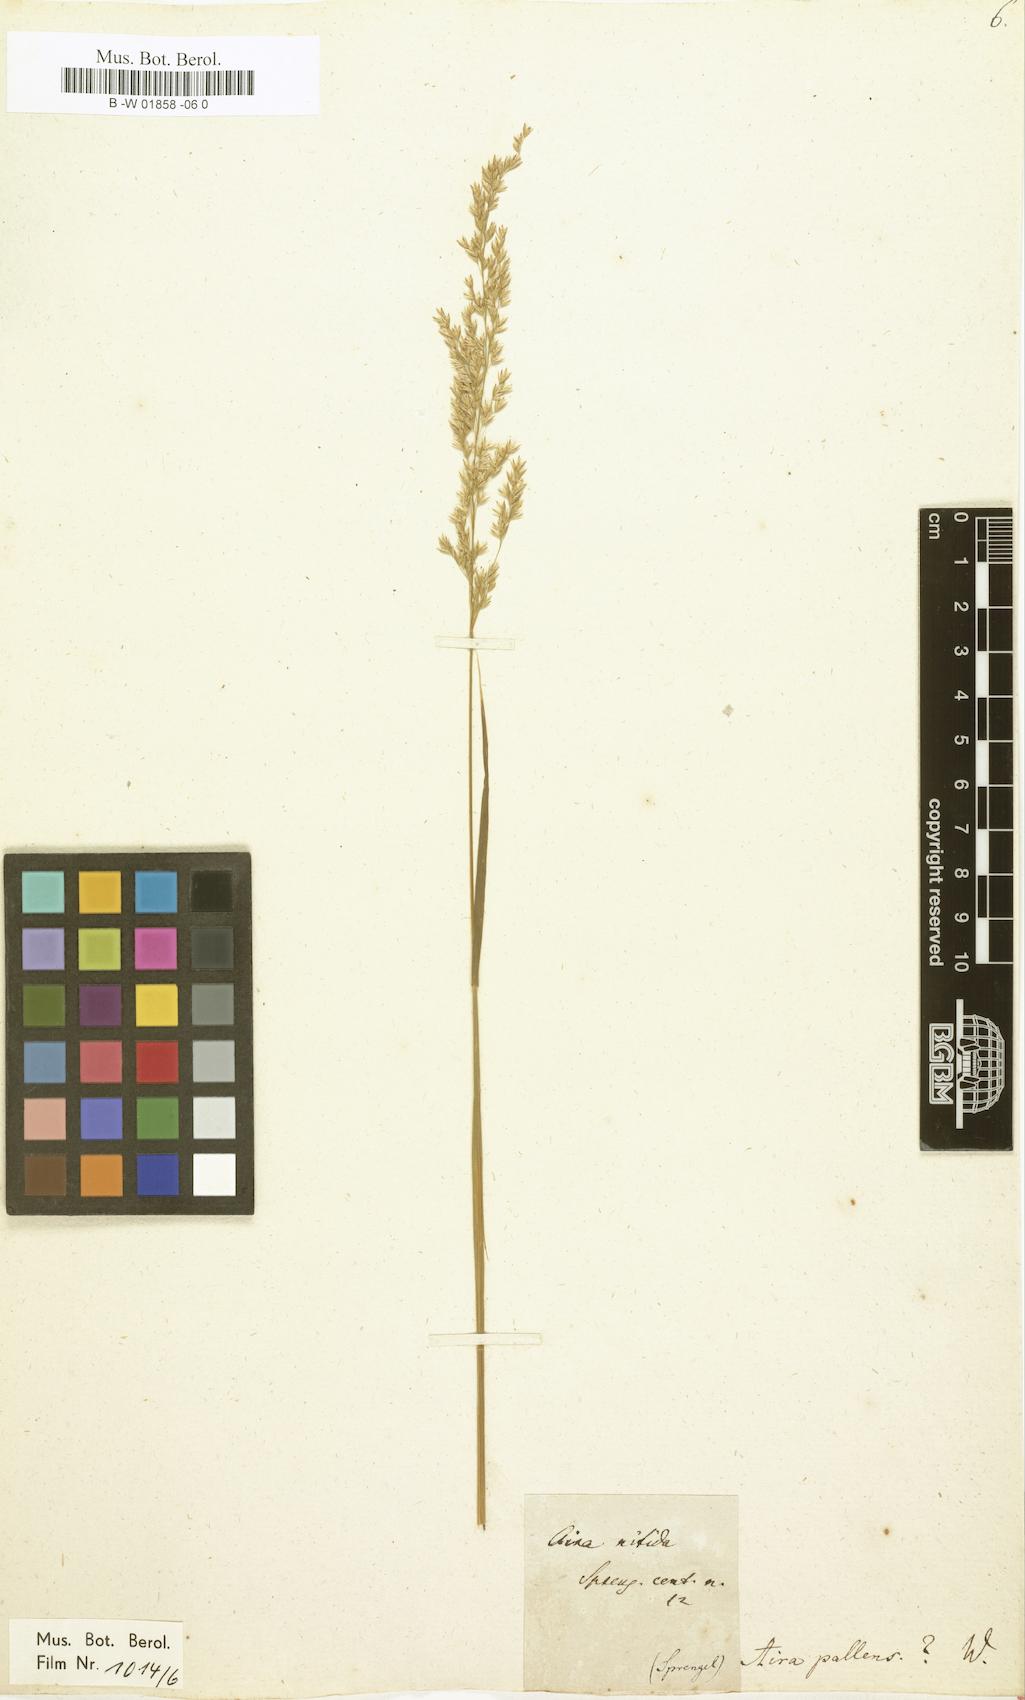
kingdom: Plantae
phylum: Tracheophyta
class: Liliopsida
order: Poales
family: Poaceae
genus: Aira
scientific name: Aira pallens
